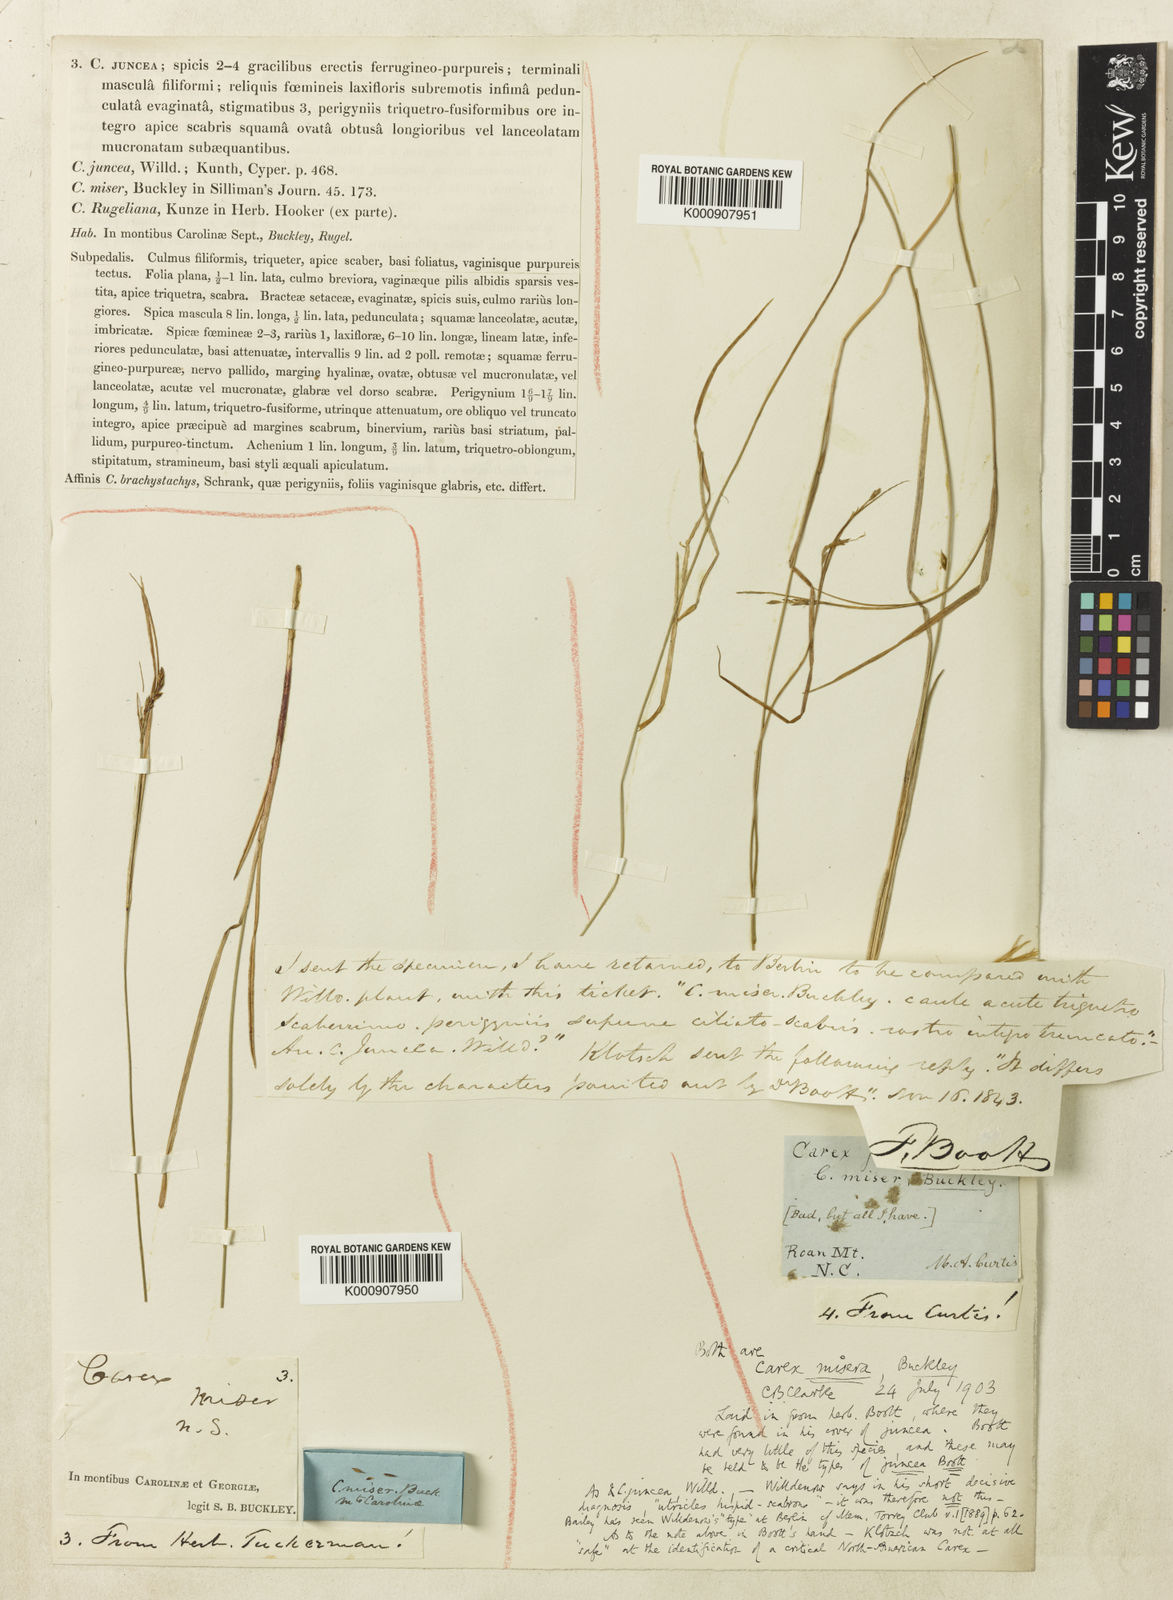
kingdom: Plantae
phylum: Tracheophyta
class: Liliopsida
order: Poales
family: Cyperaceae
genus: Carex
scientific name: Carex misera
